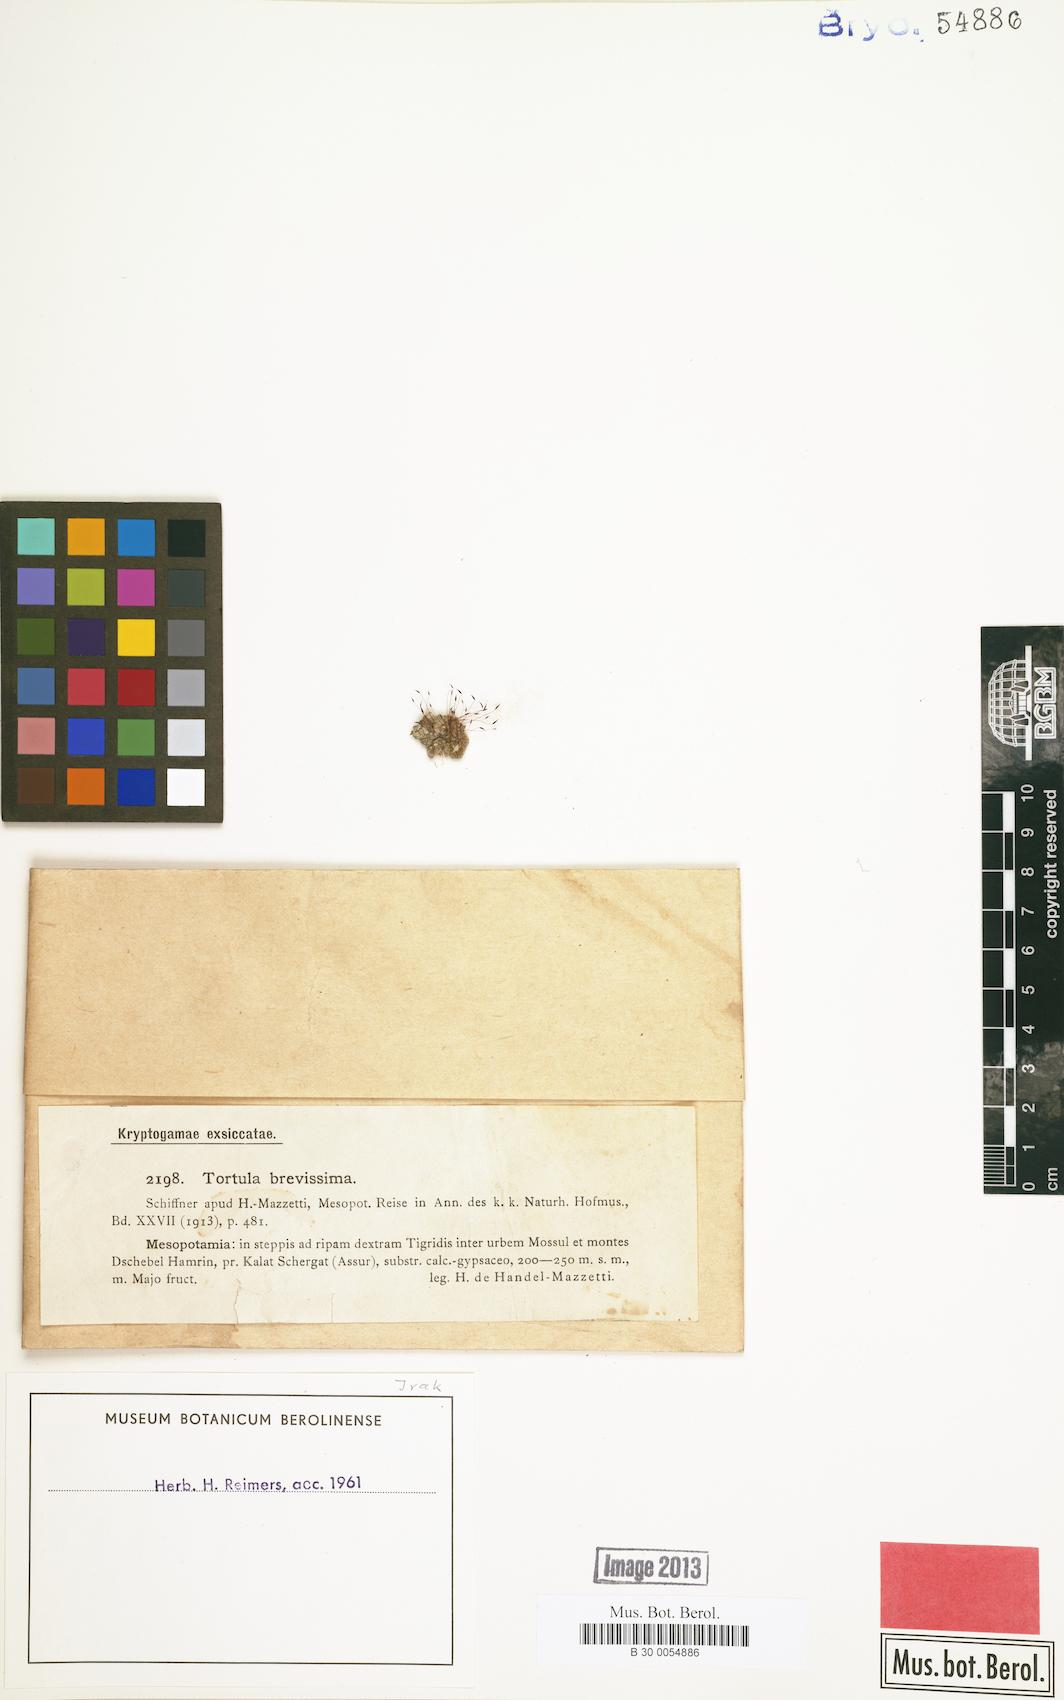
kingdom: Plantae
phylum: Bryophyta
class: Bryopsida
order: Pottiales
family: Pottiaceae
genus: Tortula
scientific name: Tortula brevissima
